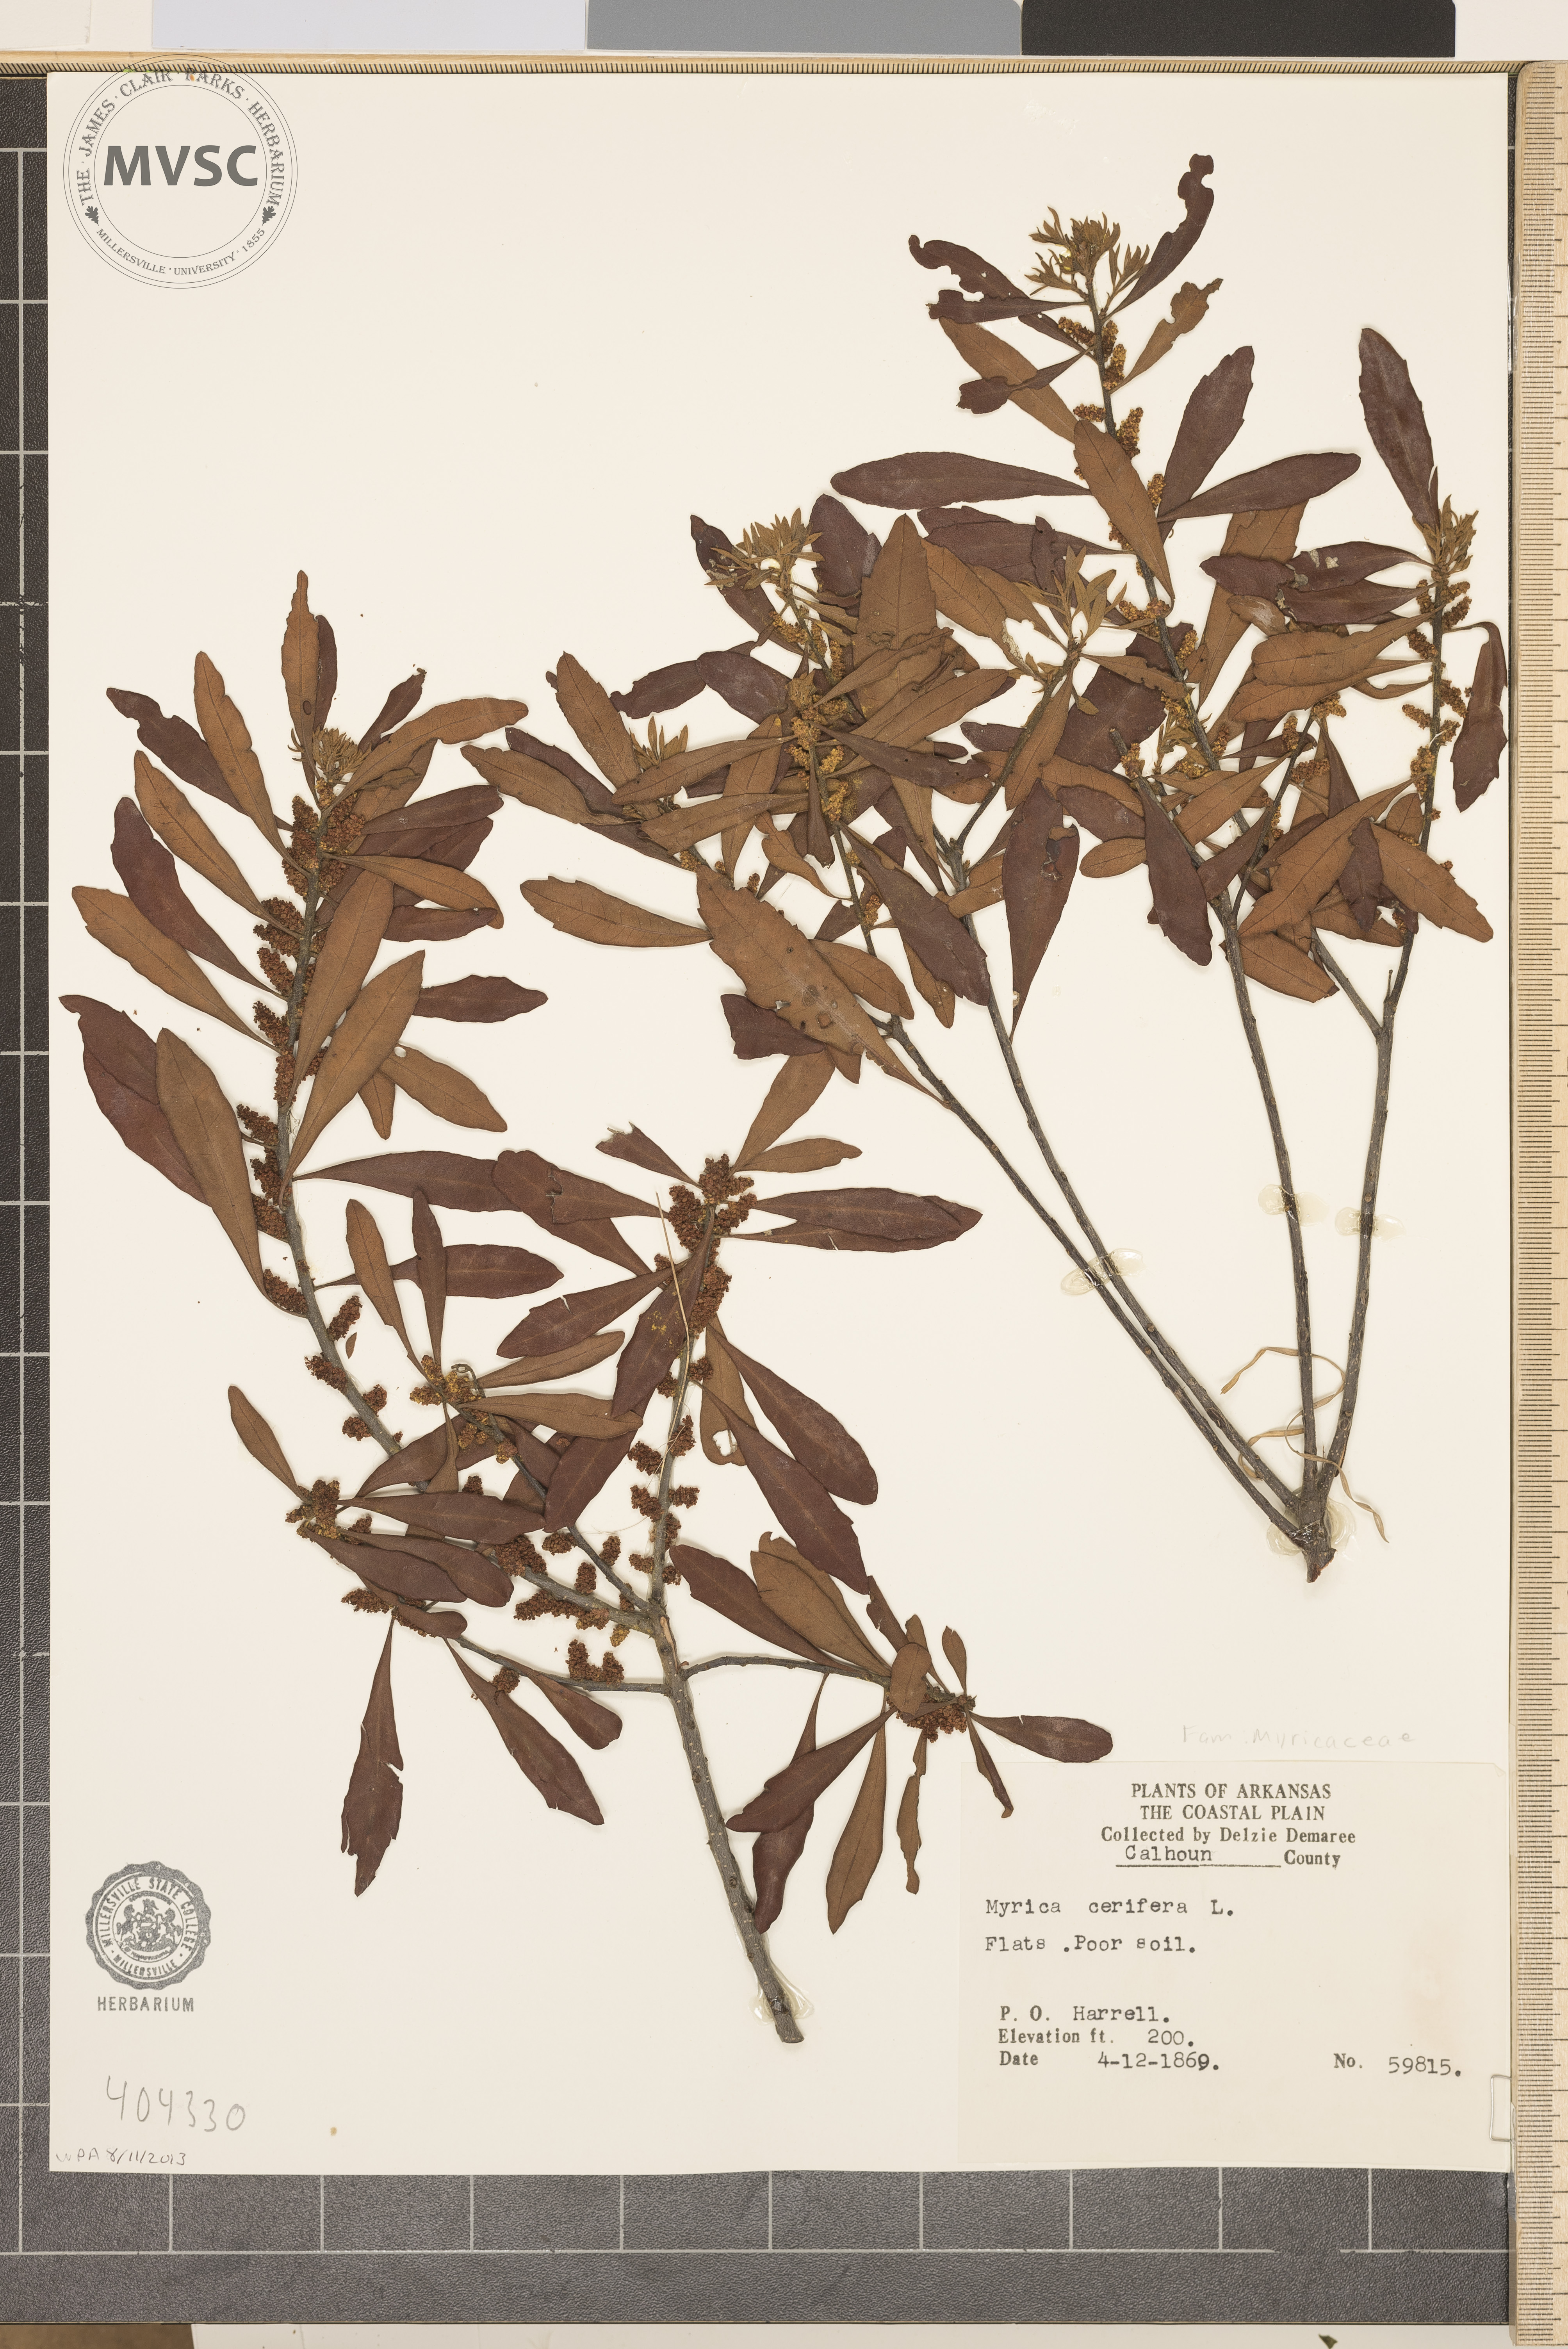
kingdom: Plantae
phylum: Tracheophyta
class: Magnoliopsida
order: Fagales
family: Myricaceae
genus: Myrica
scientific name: Myrica cerifera
